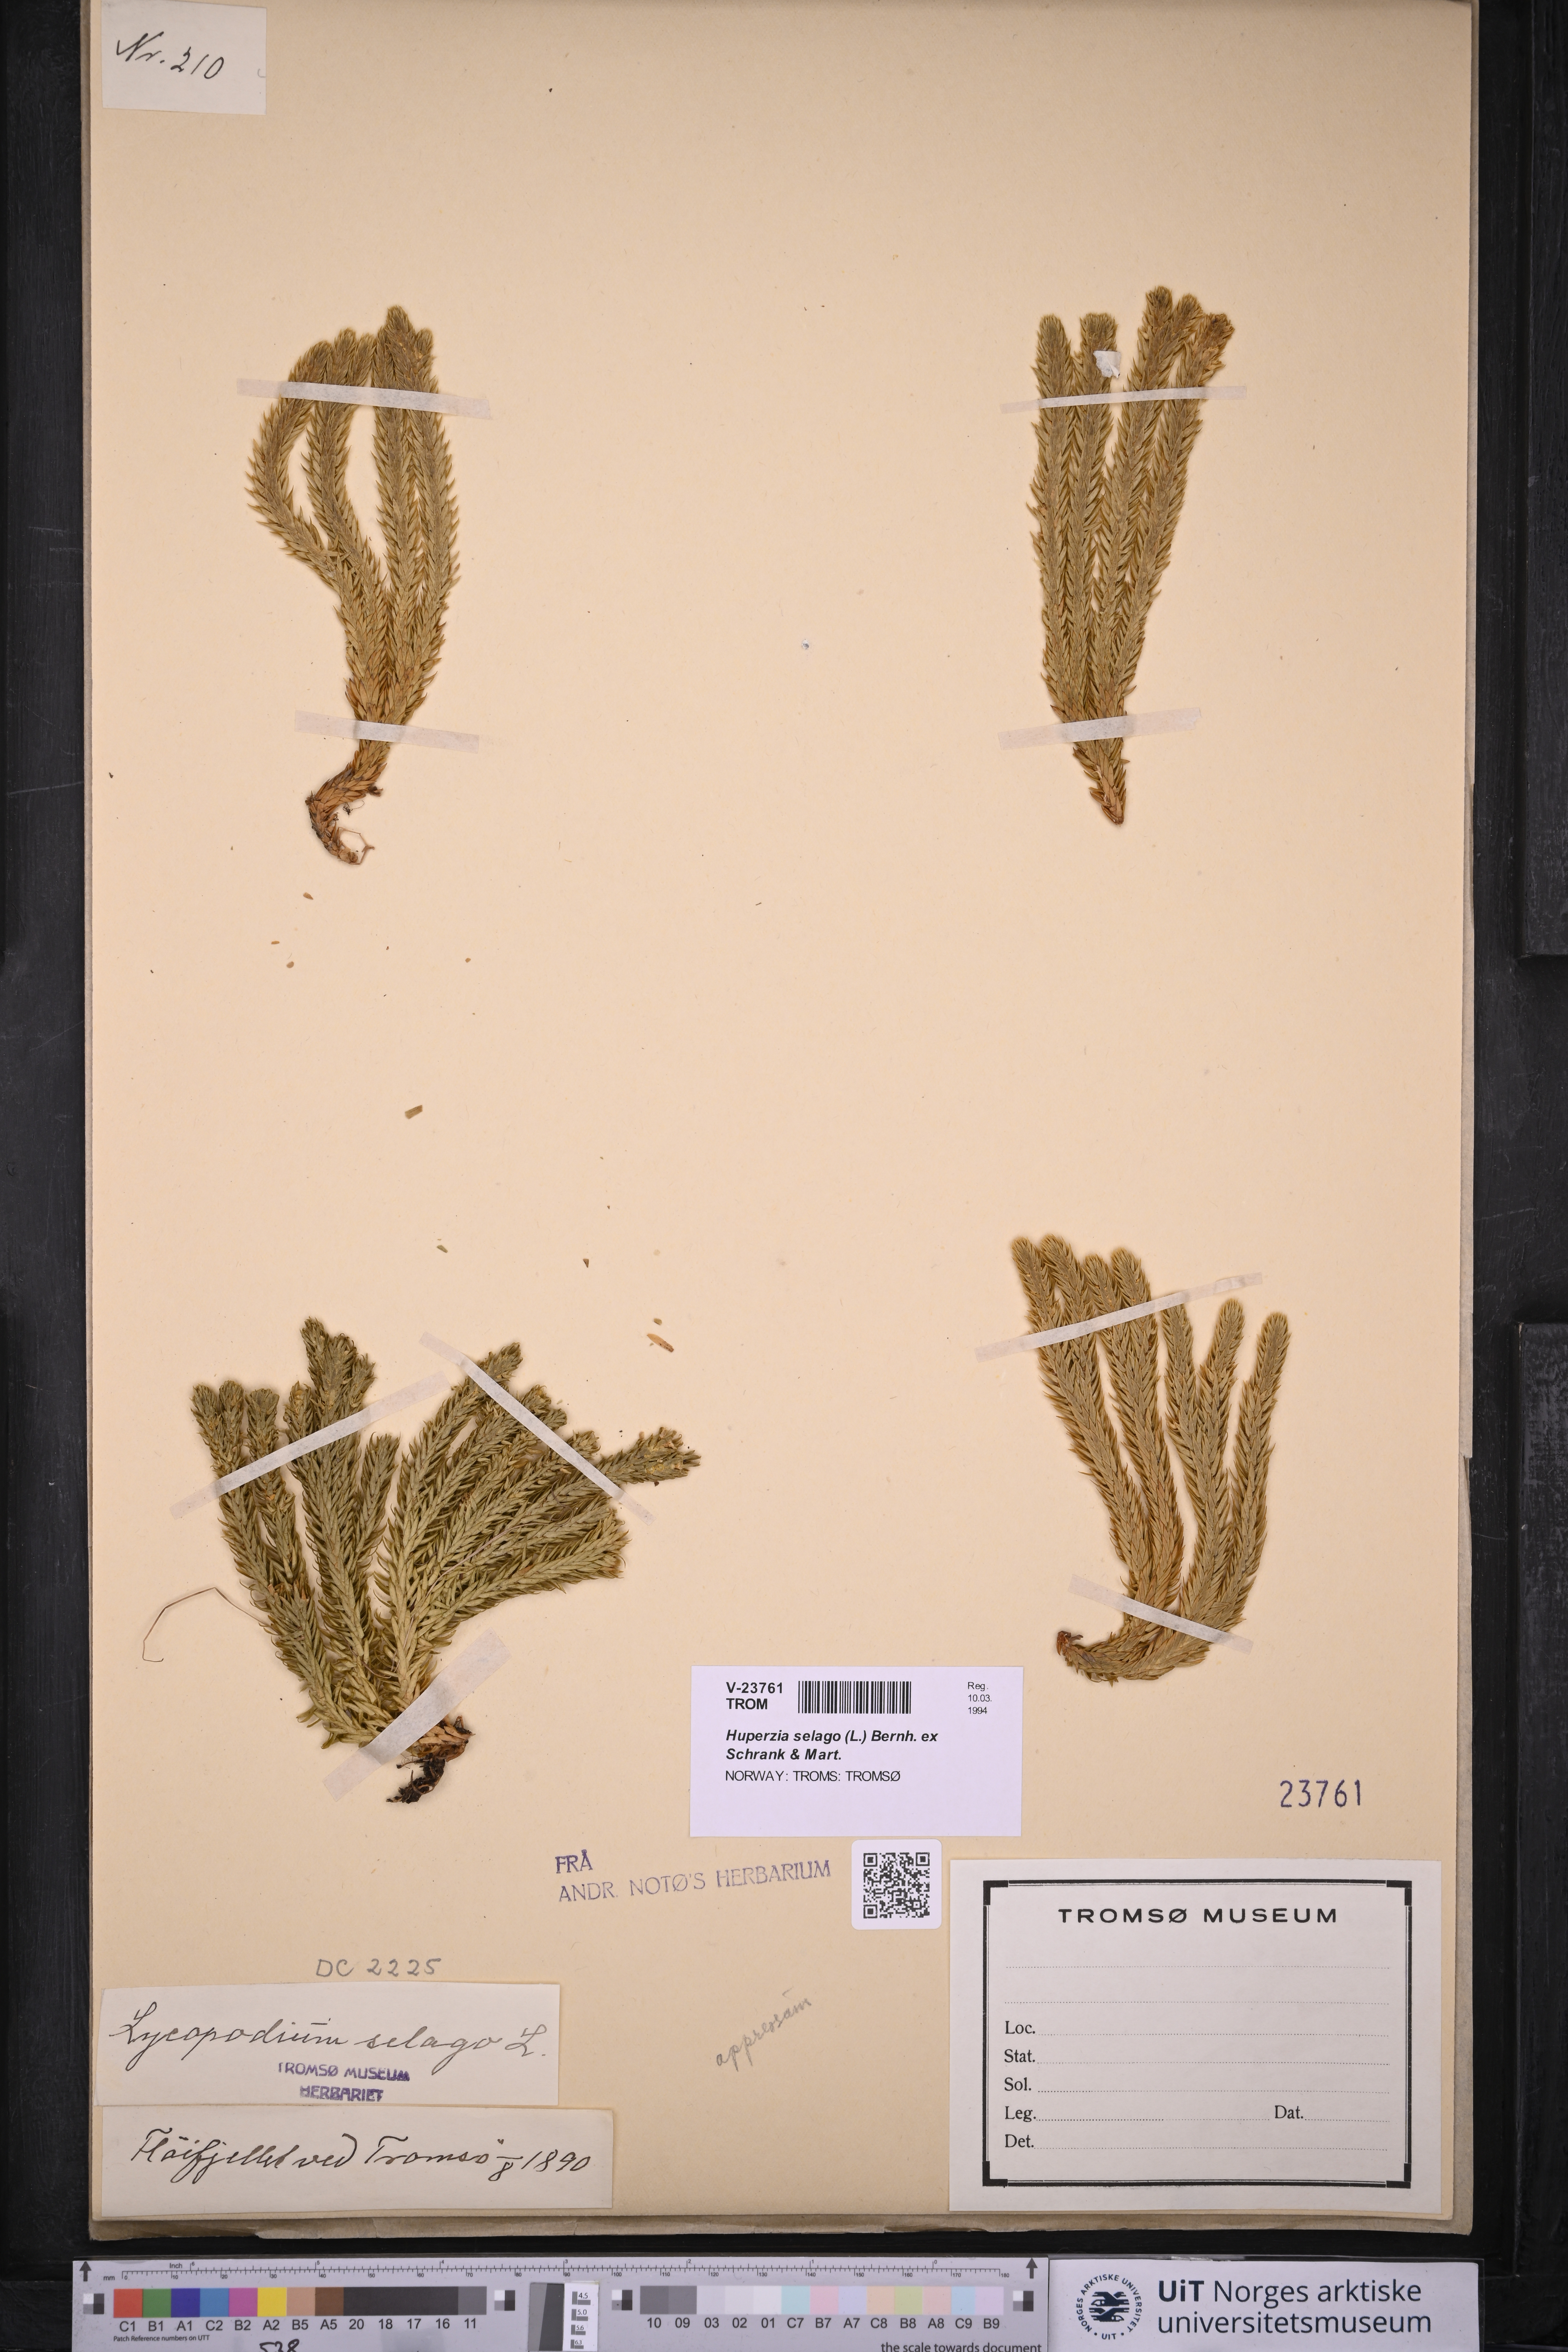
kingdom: Plantae
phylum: Tracheophyta
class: Lycopodiopsida
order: Lycopodiales
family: Lycopodiaceae
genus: Huperzia
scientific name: Huperzia selago
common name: Northern firmoss
